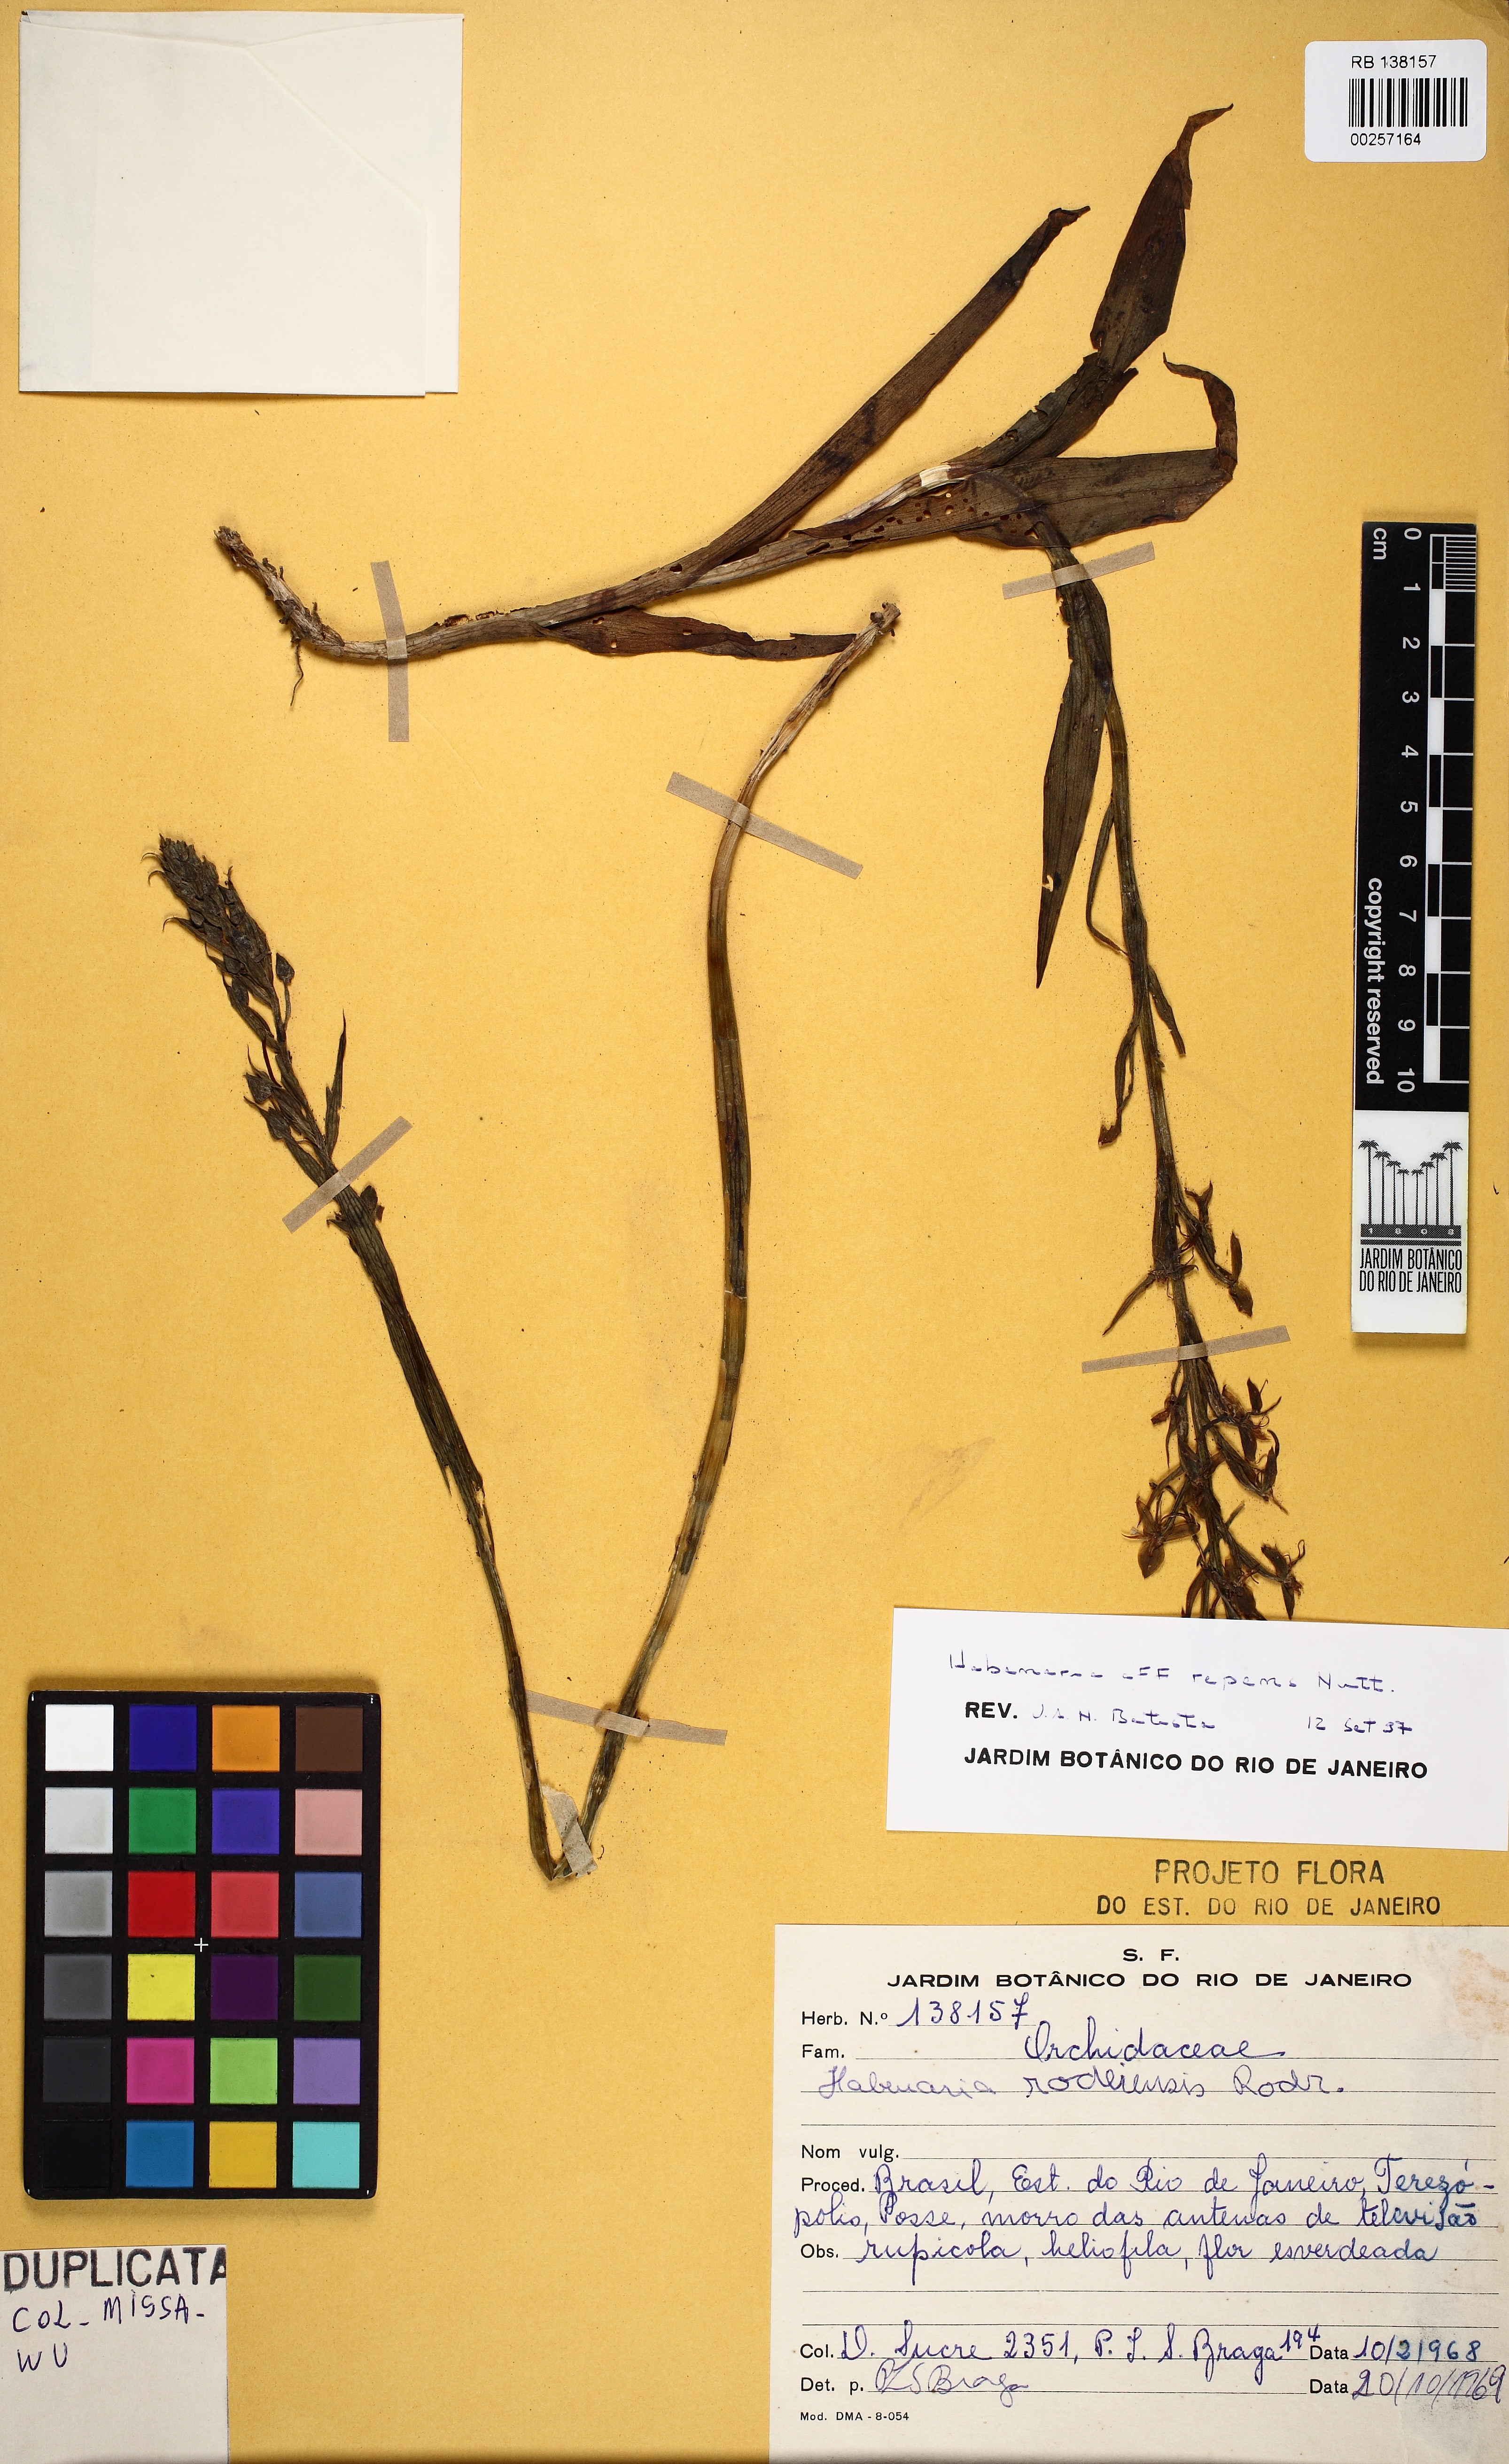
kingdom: Plantae
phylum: Tracheophyta
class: Liliopsida
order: Asparagales
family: Orchidaceae
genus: Habenaria
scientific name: Habenaria sampaioana
